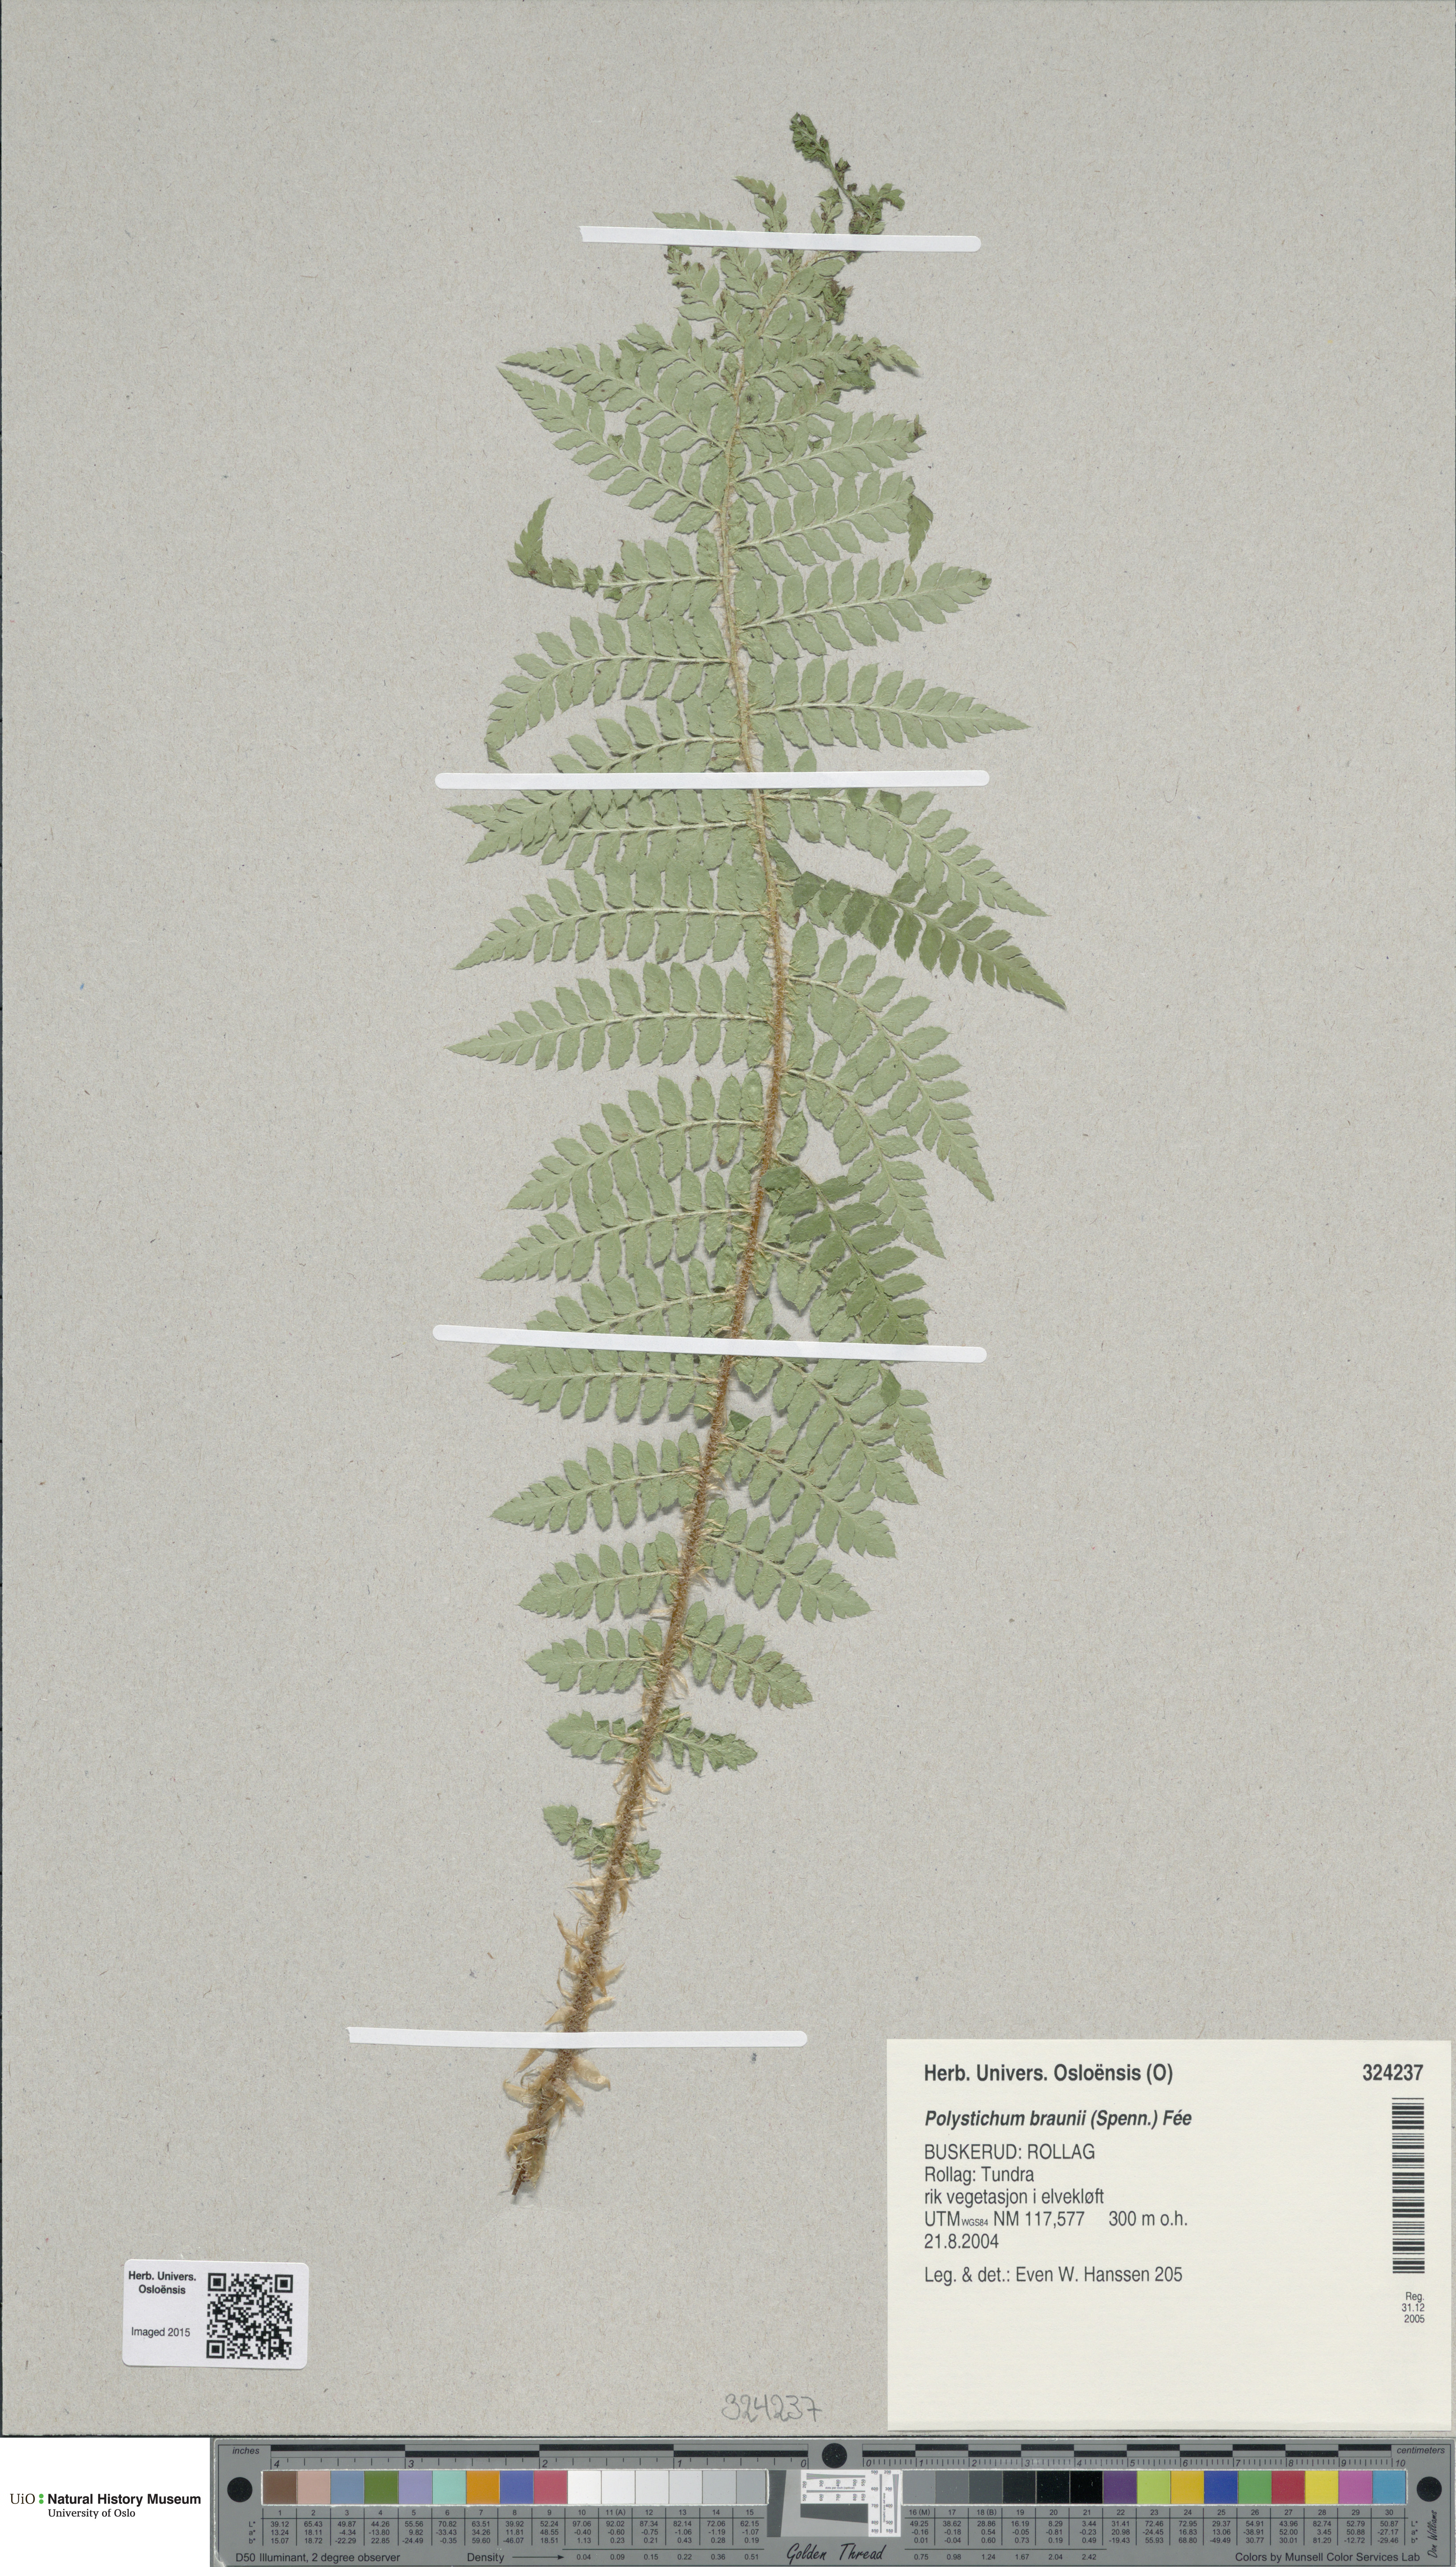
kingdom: Plantae
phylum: Tracheophyta
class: Polypodiopsida
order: Polypodiales
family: Dryopteridaceae
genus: Polystichum
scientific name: Polystichum braunii
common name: Braun's holly fern
